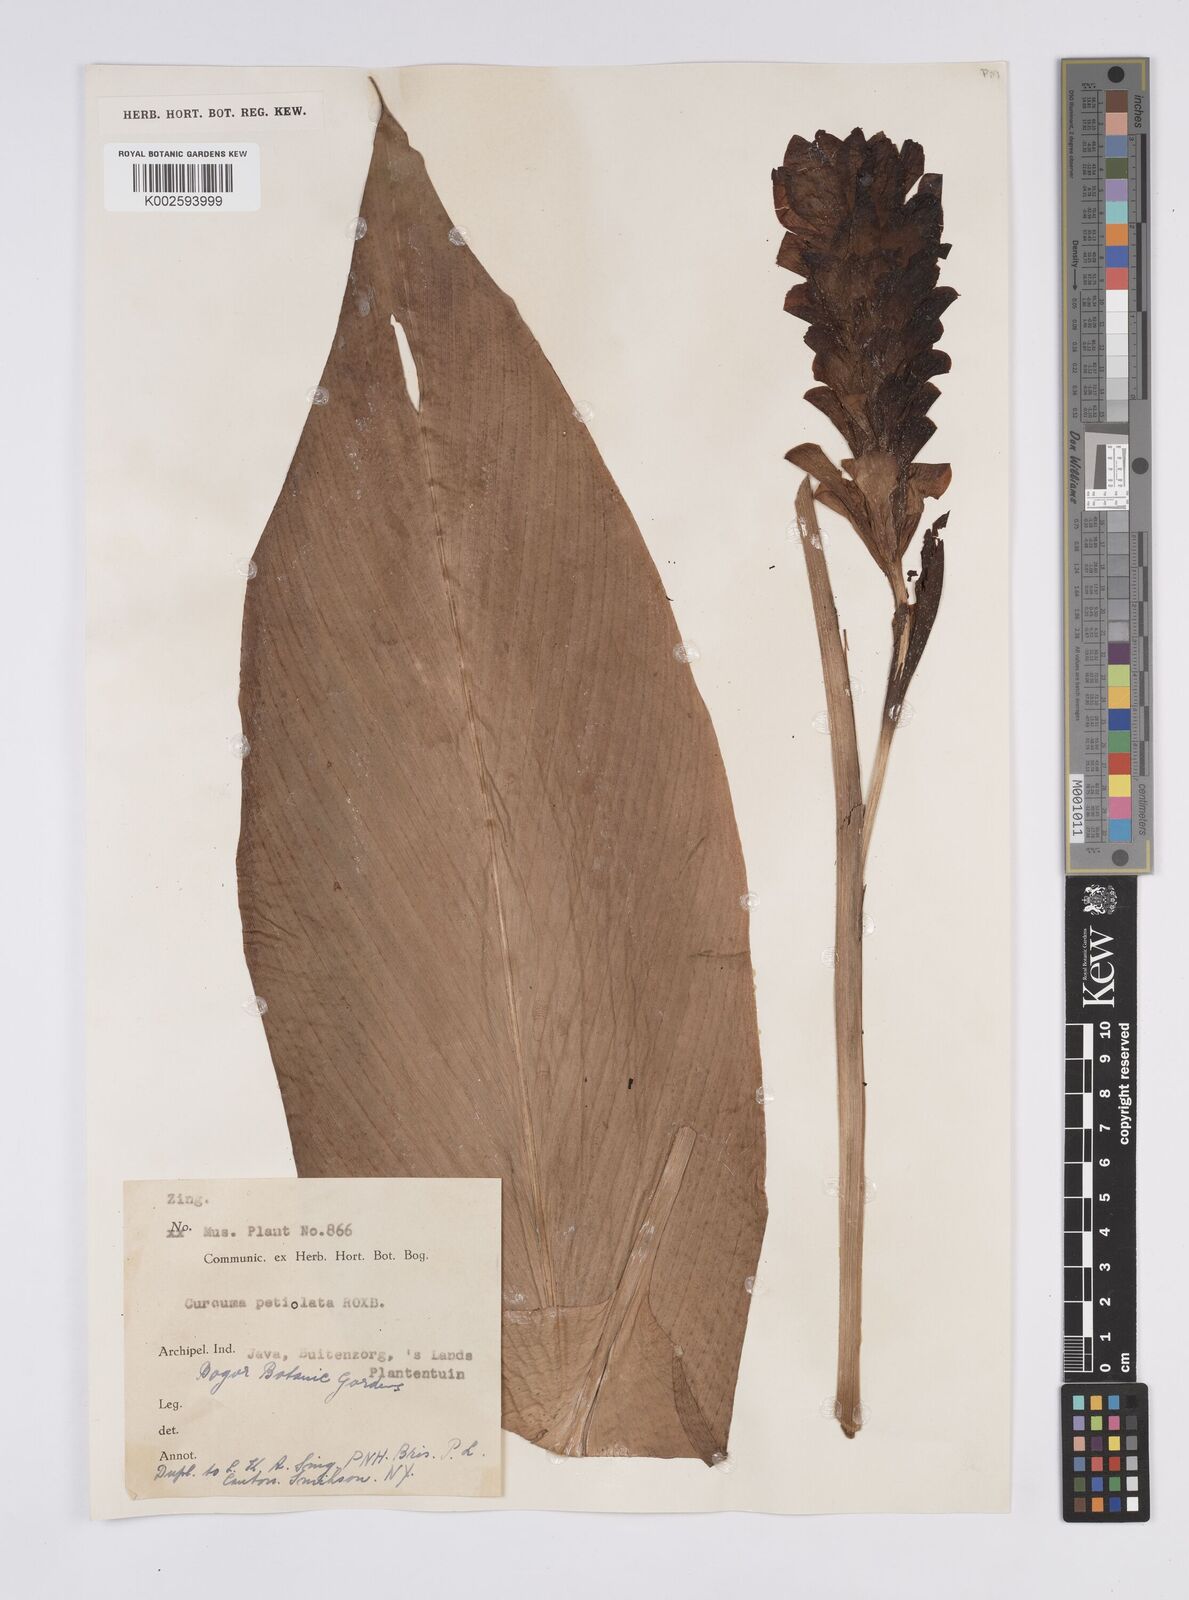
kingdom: Plantae
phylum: Tracheophyta
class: Liliopsida
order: Zingiberales
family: Zingiberaceae
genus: Curcuma
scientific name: Curcuma petiolata
